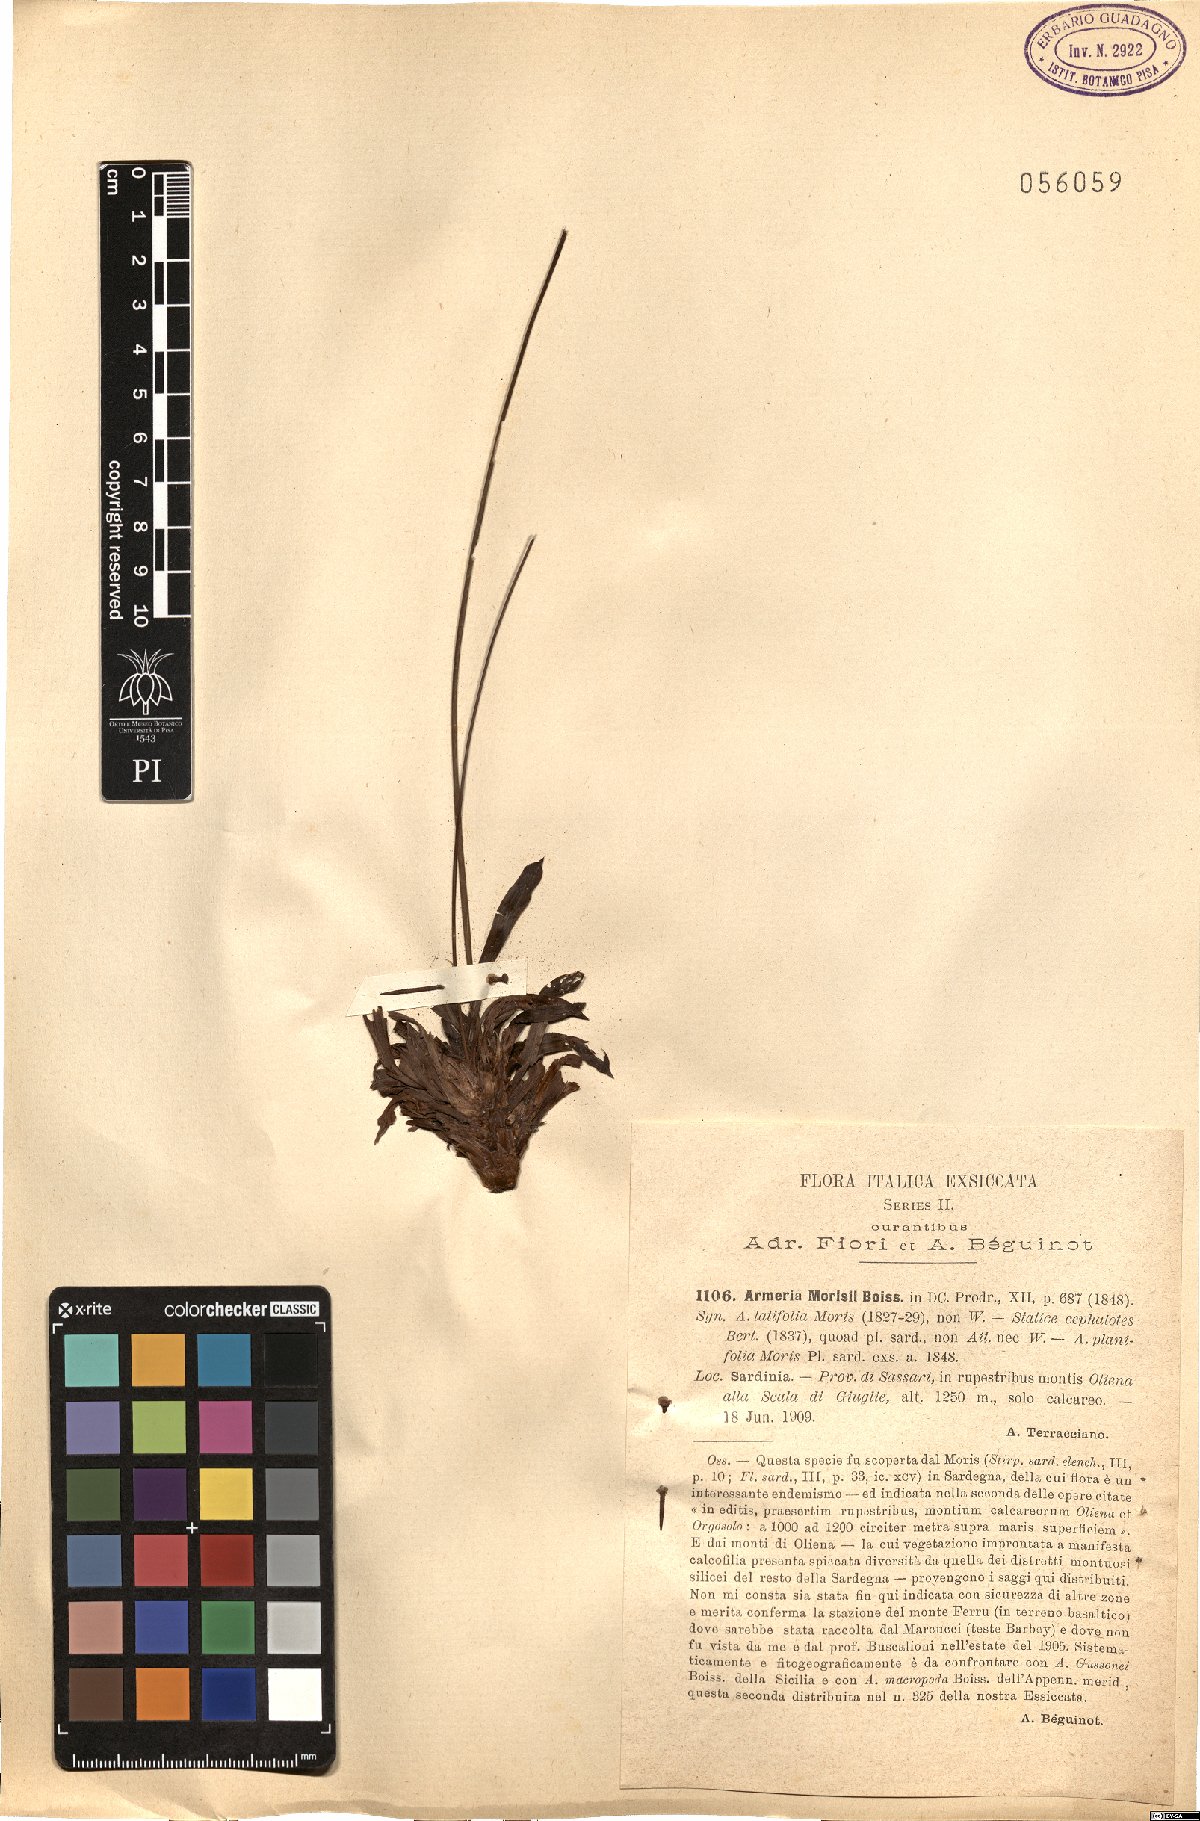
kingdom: Plantae
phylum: Tracheophyta
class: Magnoliopsida
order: Caryophyllales
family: Plumbaginaceae
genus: Armeria
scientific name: Armeria morisii
